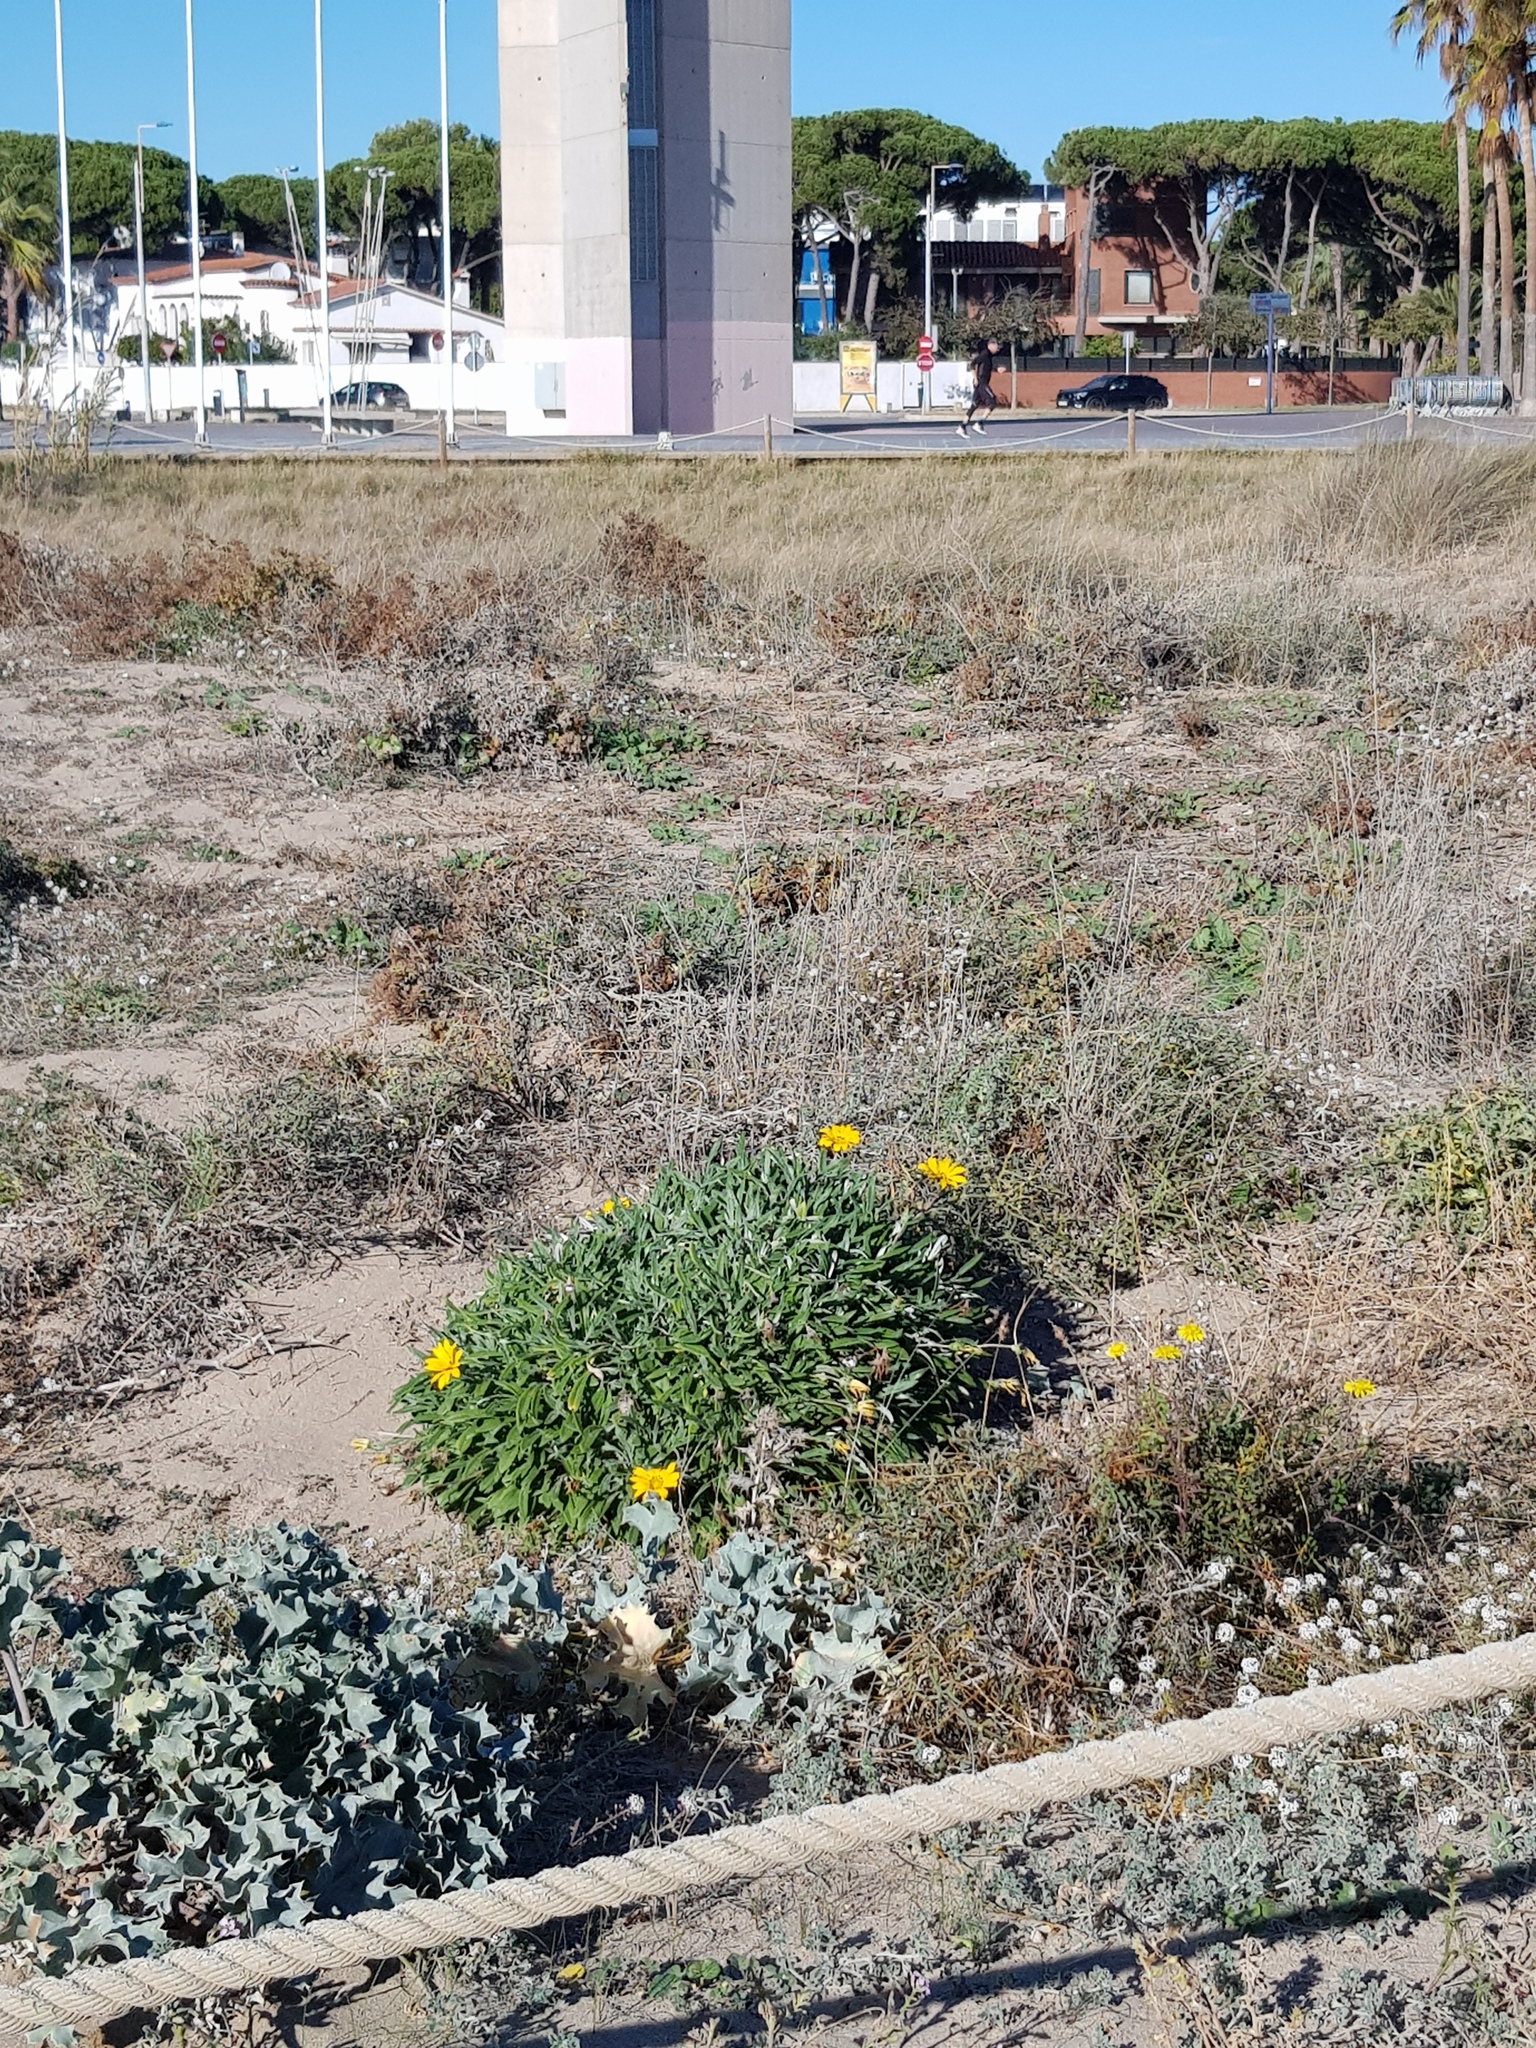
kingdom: Plantae
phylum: Tracheophyta
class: Magnoliopsida
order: Asterales
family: Asteraceae
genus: Gazania
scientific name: Gazania rigens
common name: Treasureflower
